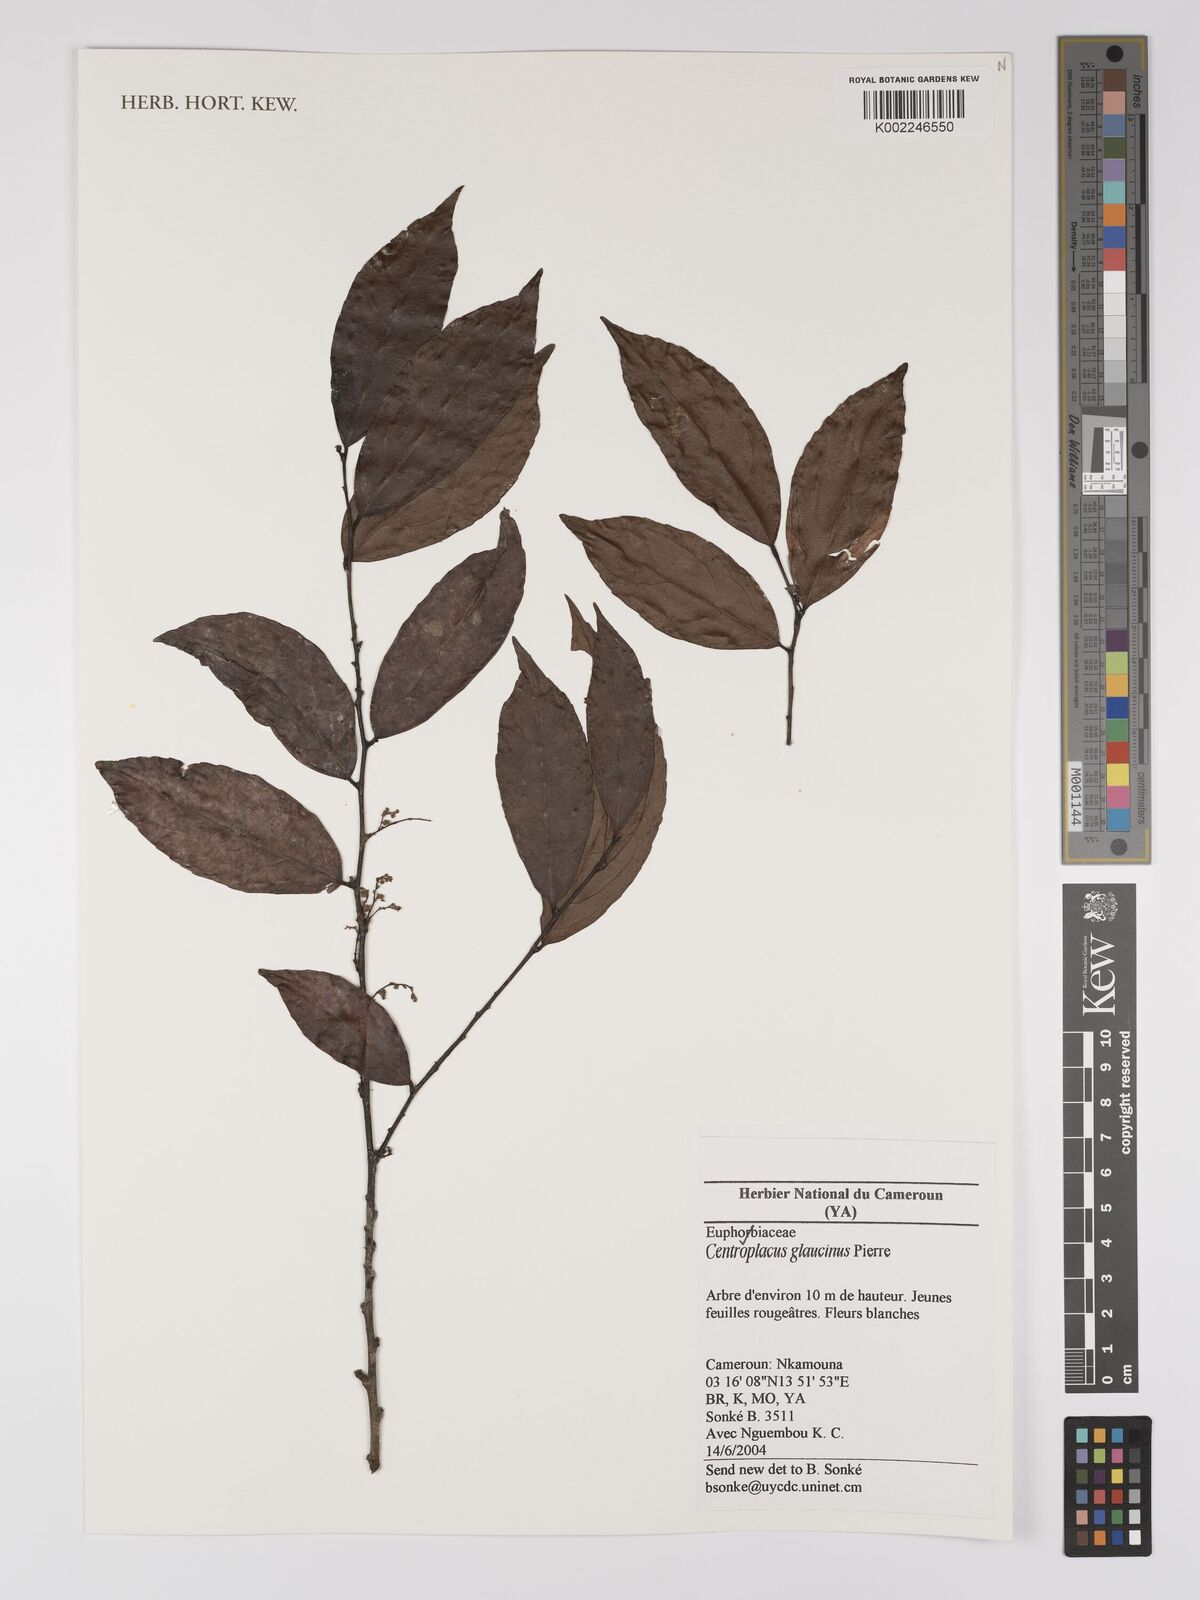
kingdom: Plantae
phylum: Tracheophyta
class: Magnoliopsida
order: Malpighiales
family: Centroplacaceae
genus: Centroplacus
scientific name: Centroplacus glaucinus
